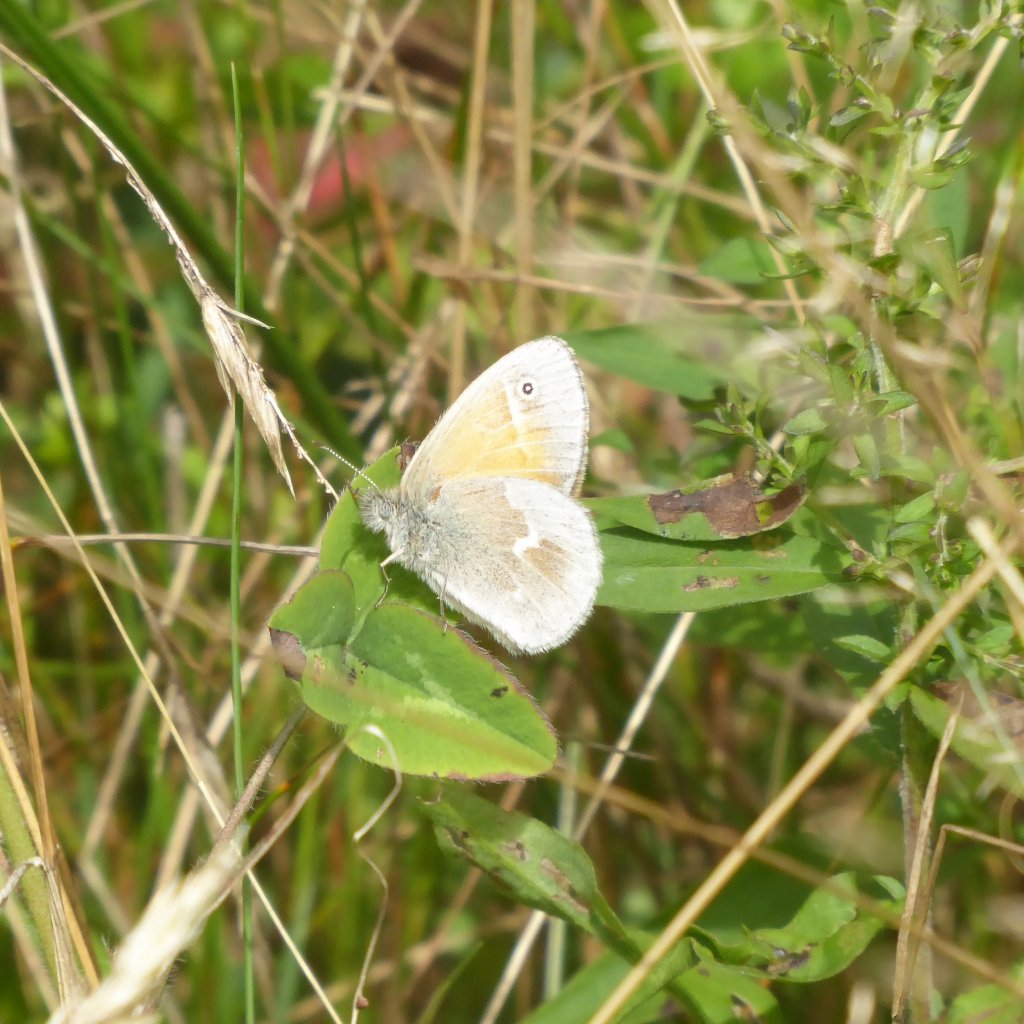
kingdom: Animalia
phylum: Arthropoda
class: Insecta
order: Lepidoptera
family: Nymphalidae
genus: Coenonympha
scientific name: Coenonympha tullia
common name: Large Heath
